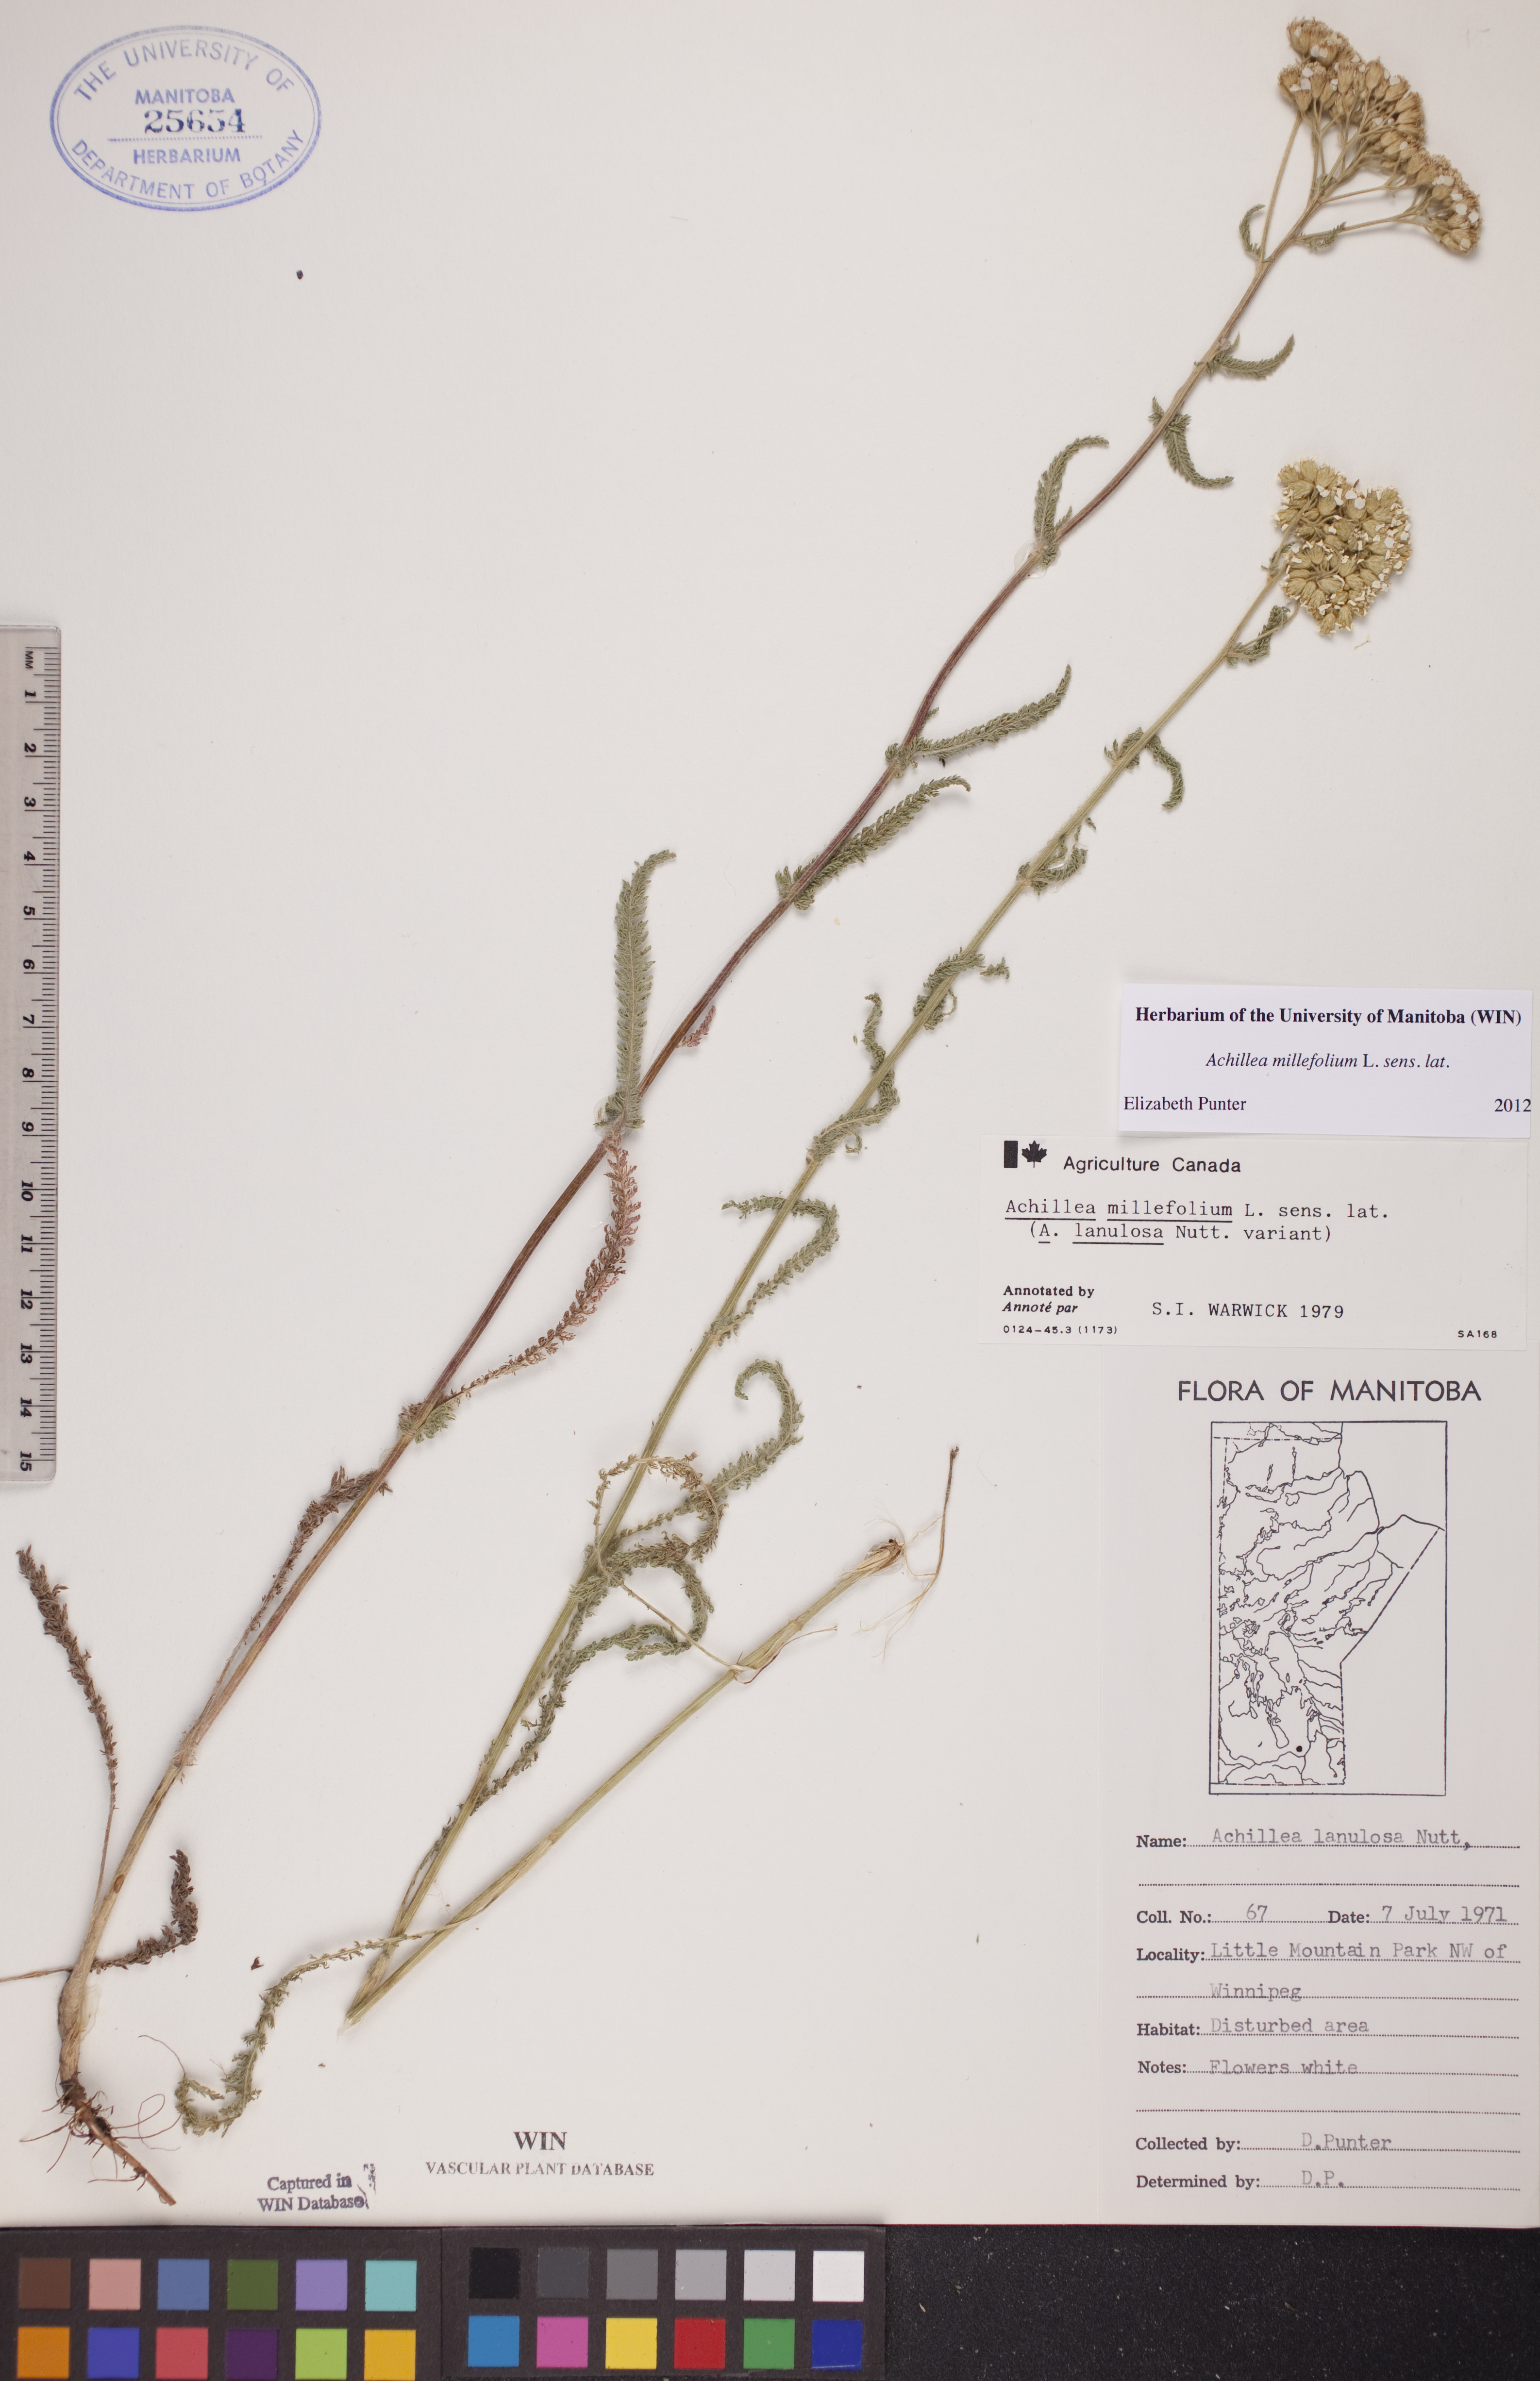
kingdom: Plantae
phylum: Tracheophyta
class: Magnoliopsida
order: Asterales
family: Asteraceae
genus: Achillea
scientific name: Achillea millefolium
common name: Yarrow
